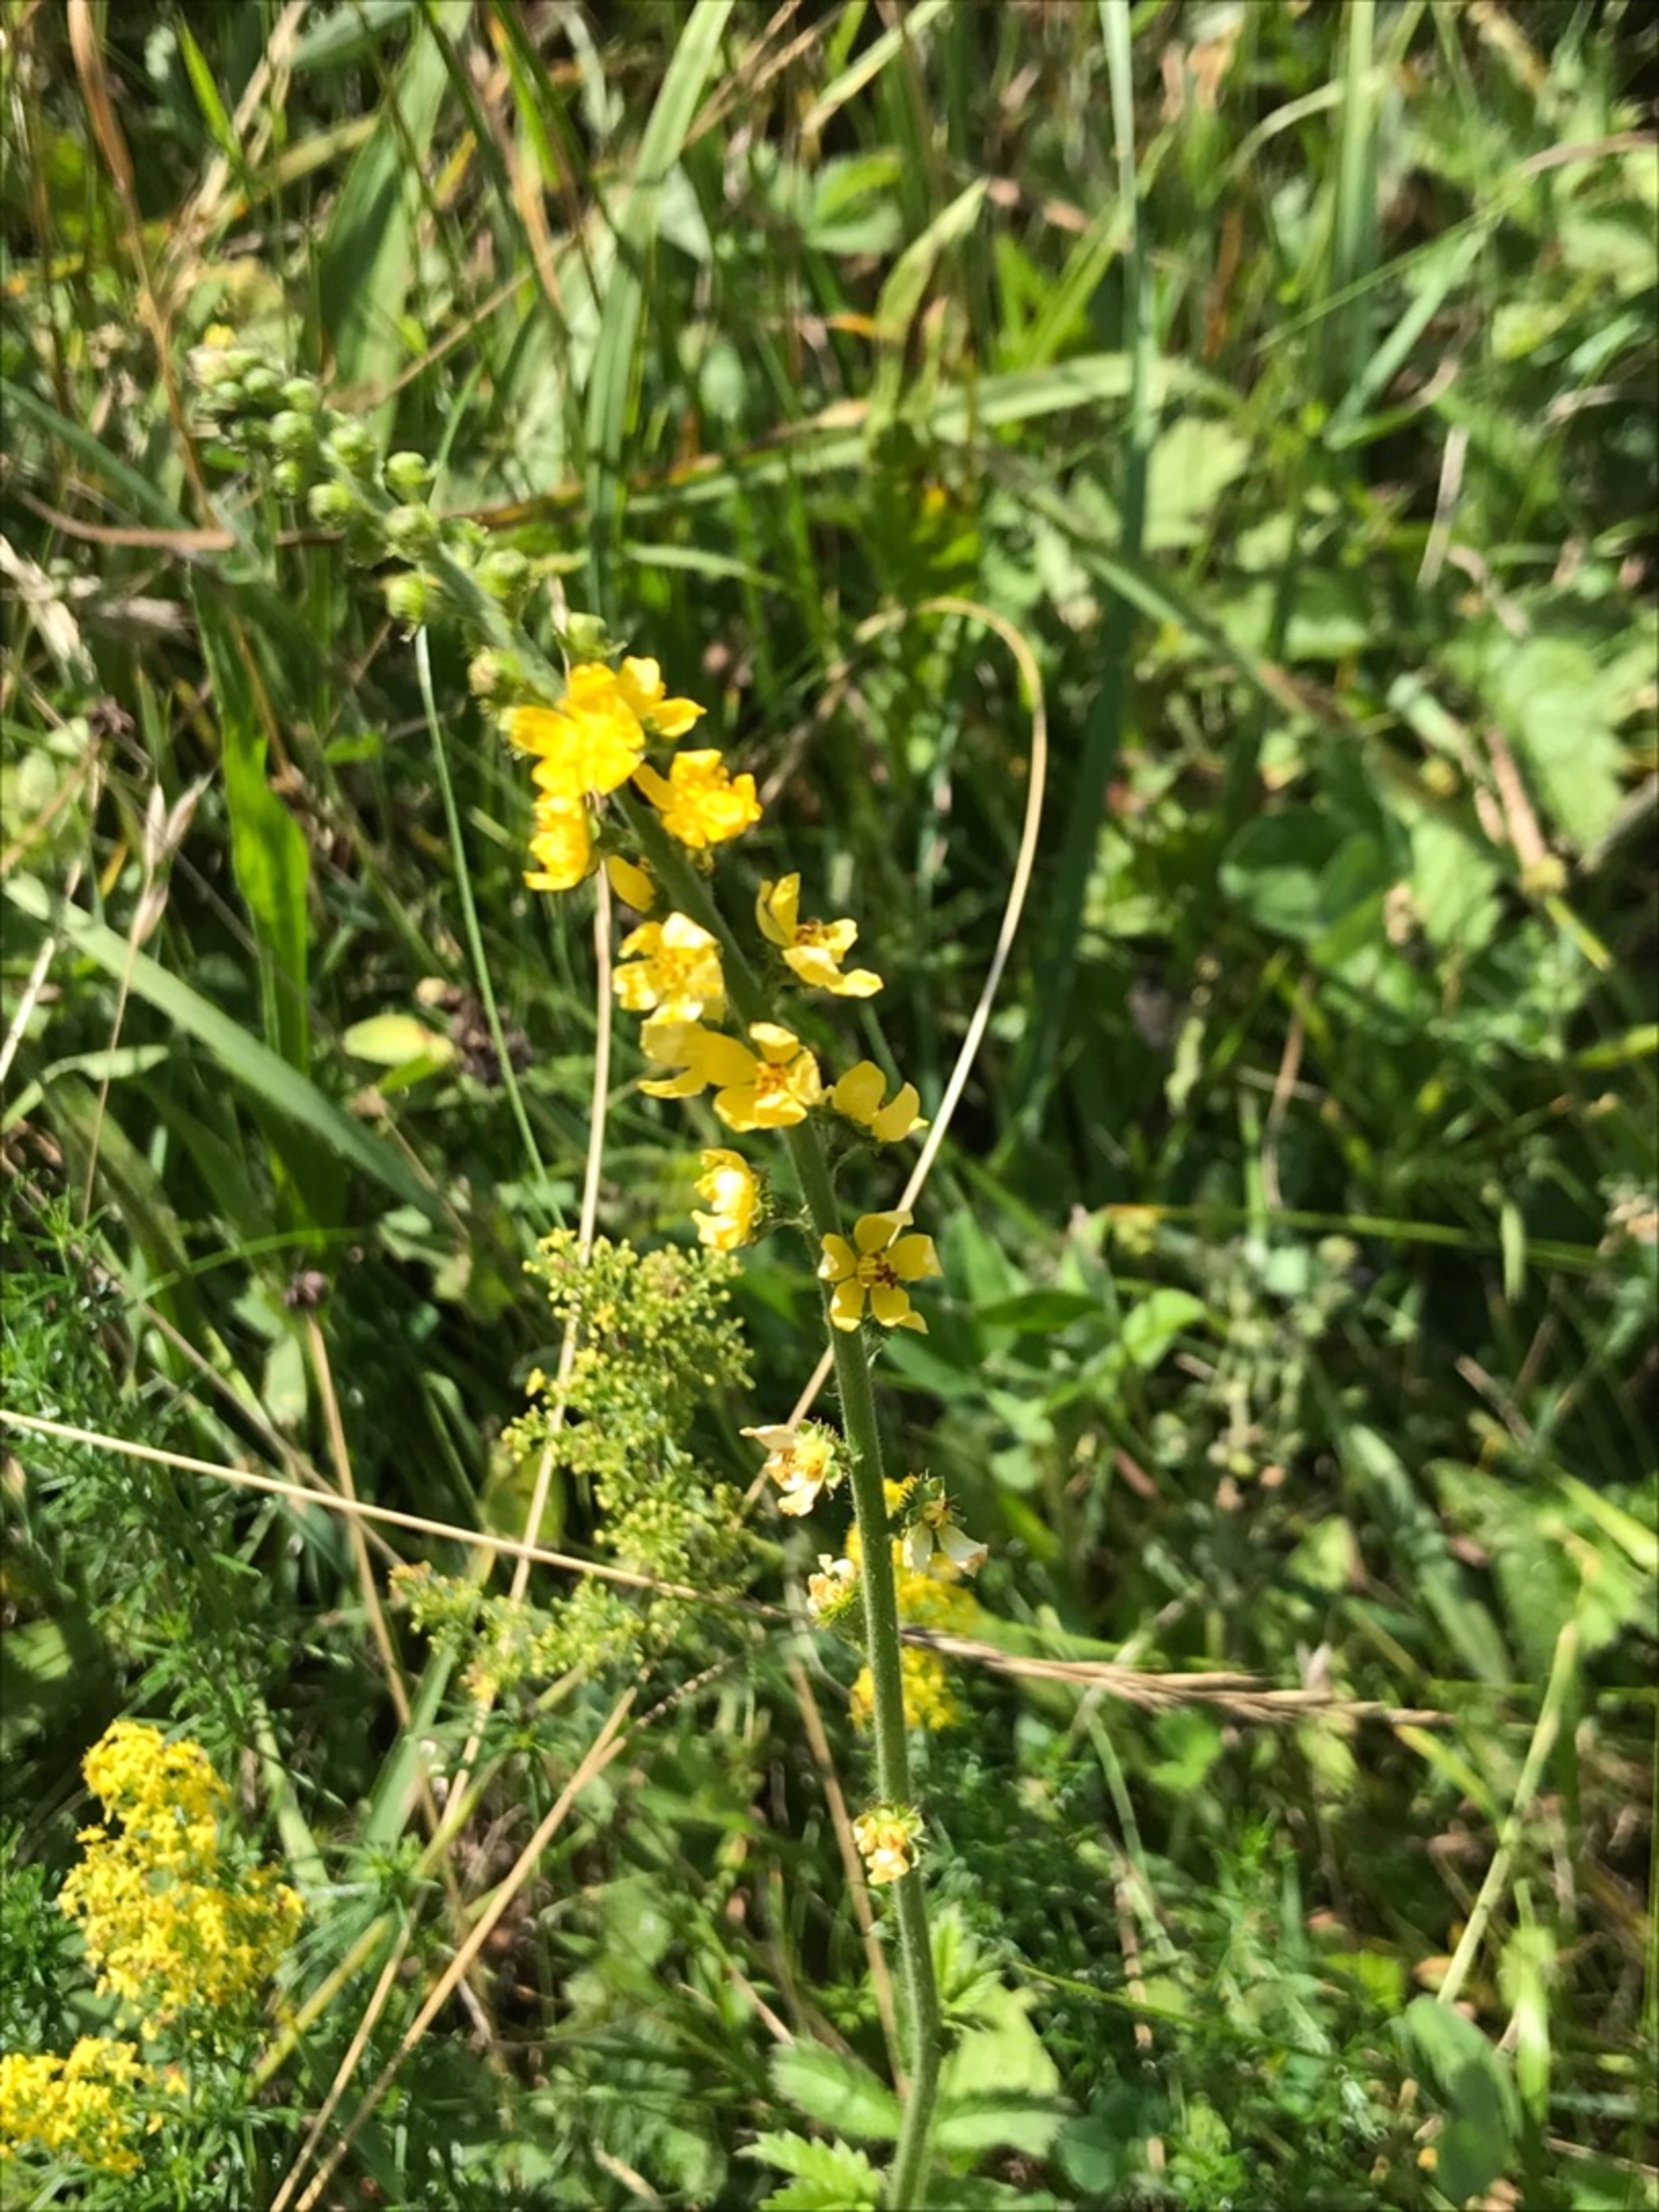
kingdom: Plantae
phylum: Tracheophyta
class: Magnoliopsida
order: Rosales
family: Rosaceae
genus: Agrimonia
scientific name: Agrimonia eupatoria
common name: Almindelig agermåne
